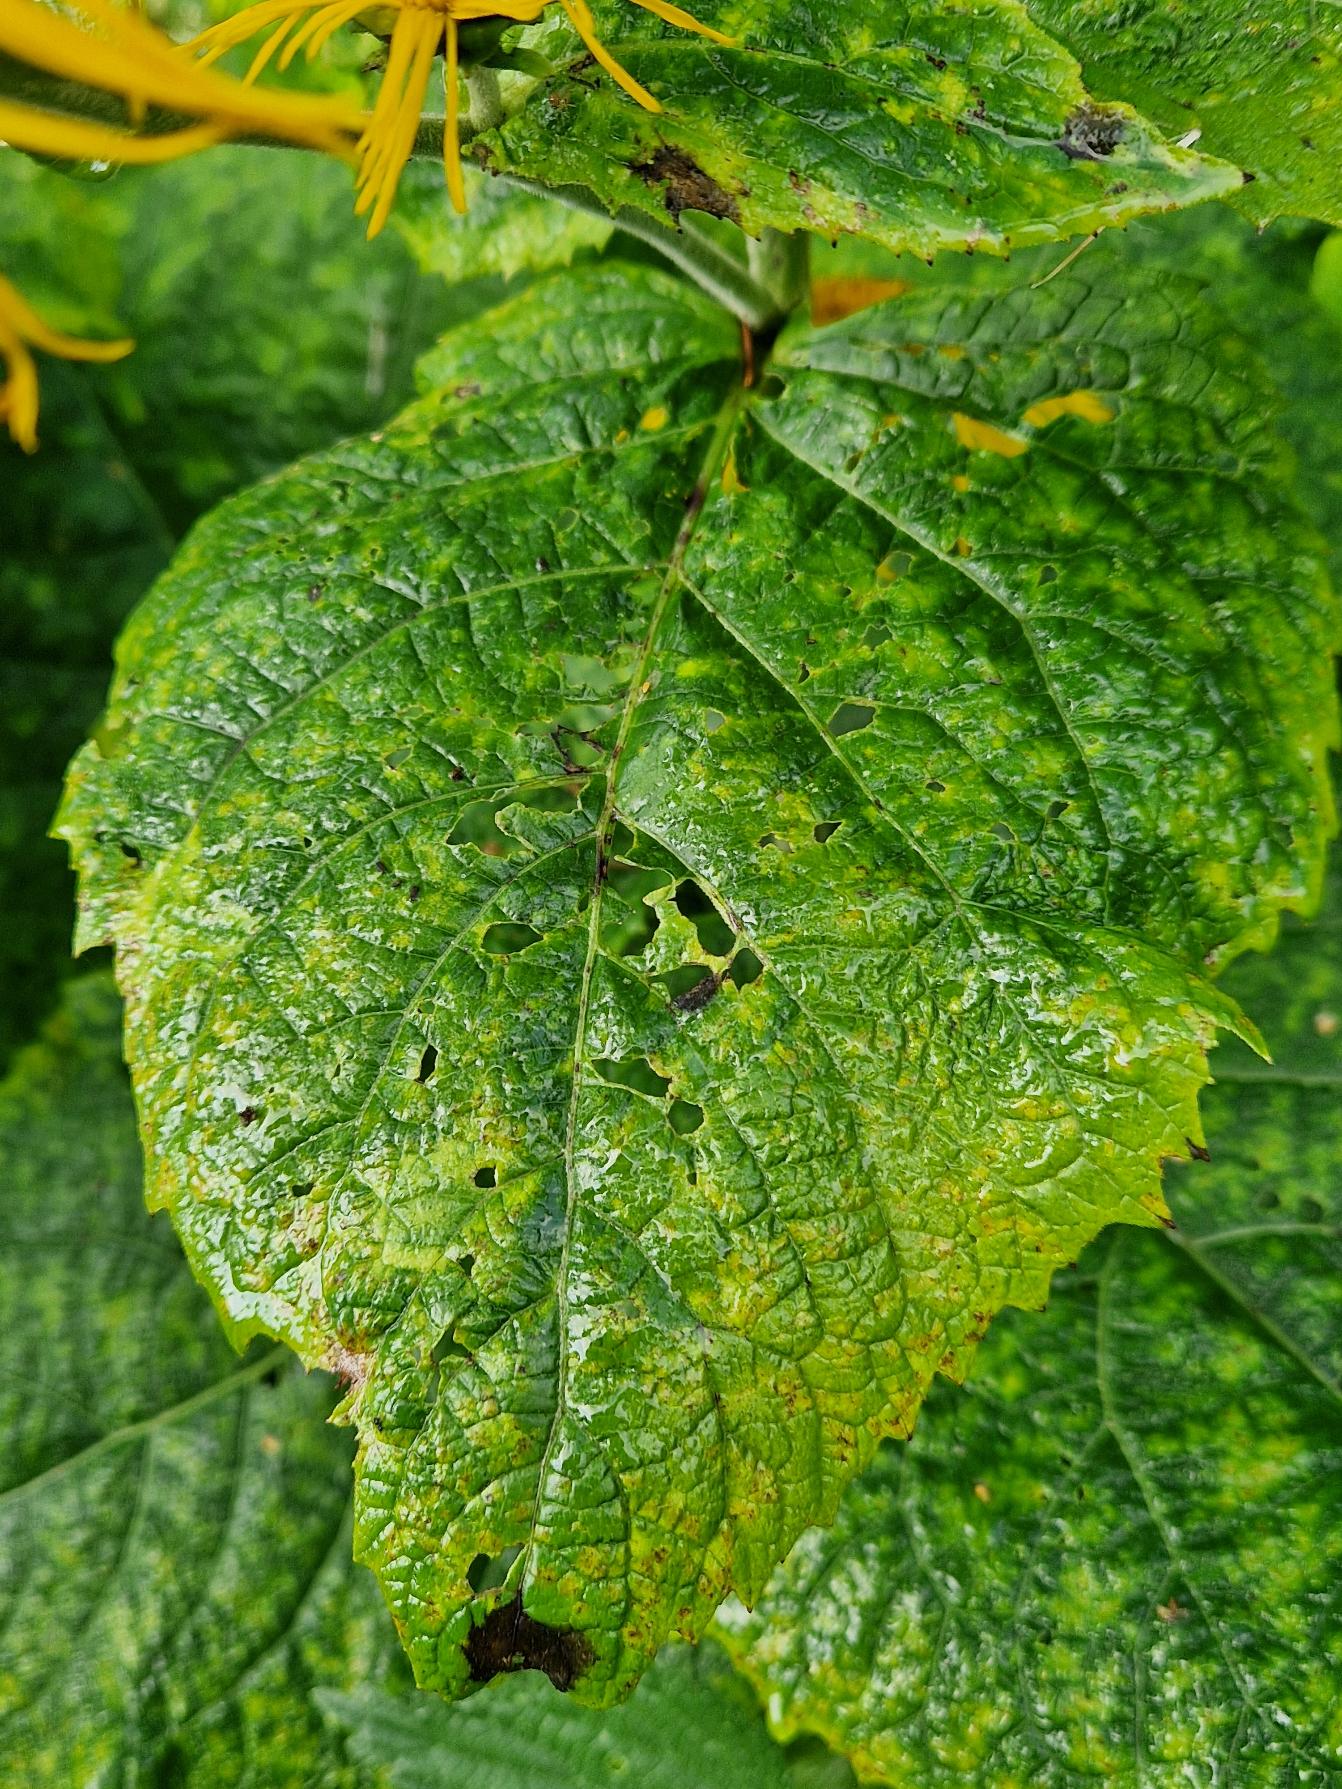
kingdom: Plantae
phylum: Tracheophyta
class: Magnoliopsida
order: Asterales
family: Asteraceae
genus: Telekia
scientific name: Telekia speciosa
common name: Tusindstråle
